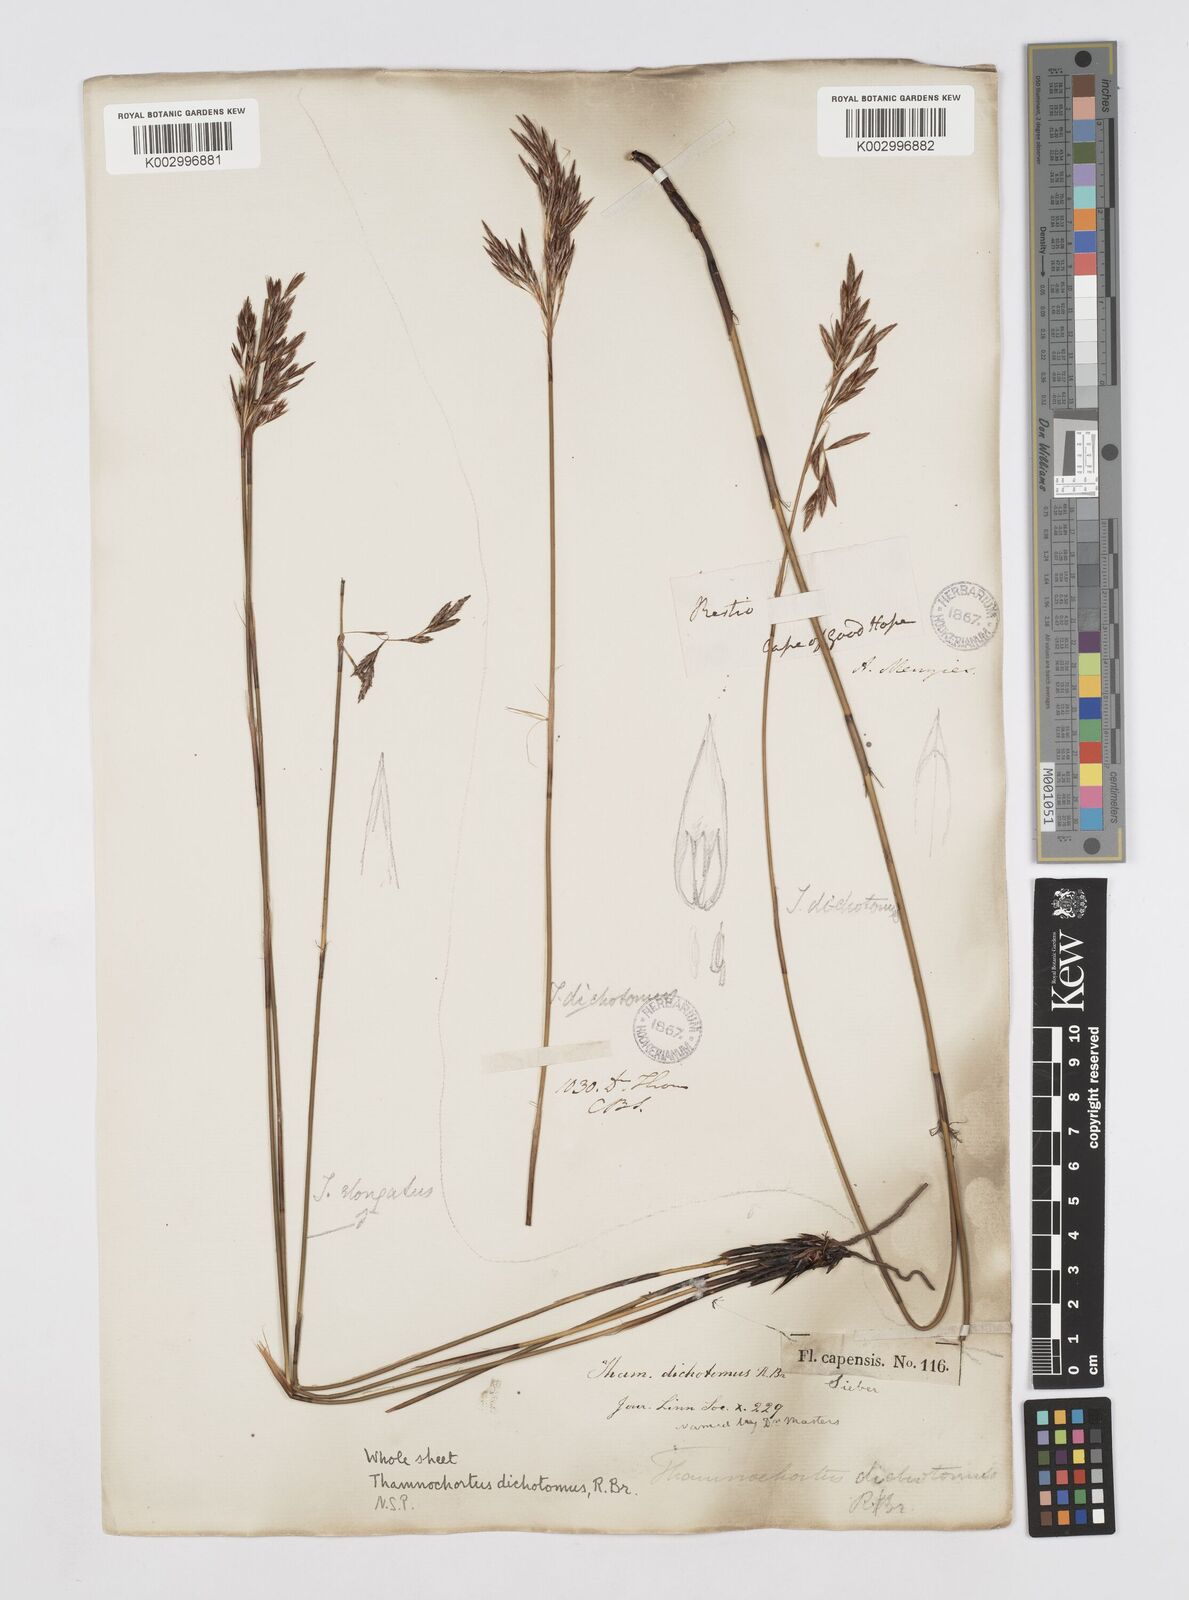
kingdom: Plantae
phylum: Tracheophyta
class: Liliopsida
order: Poales
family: Restionaceae
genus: Thamnochortus
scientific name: Thamnochortus lucens
